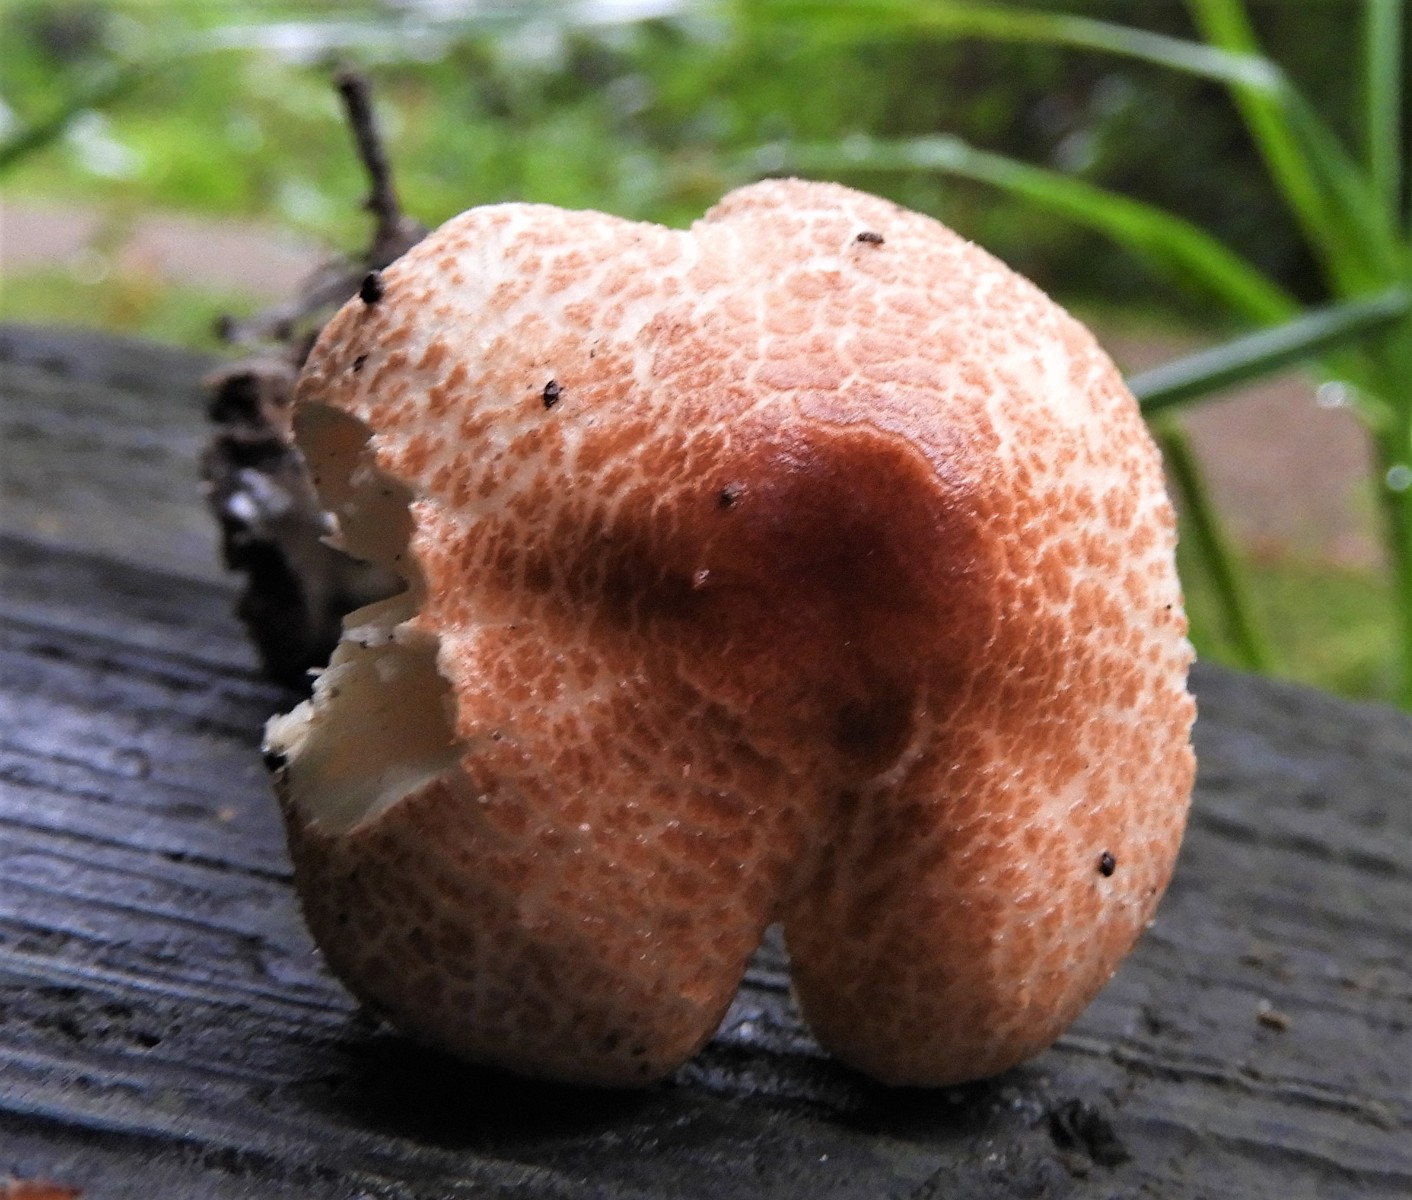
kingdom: Fungi
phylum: Basidiomycota
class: Agaricomycetes
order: Agaricales
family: Agaricaceae
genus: Lepiota
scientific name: Lepiota
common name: parasolhat
